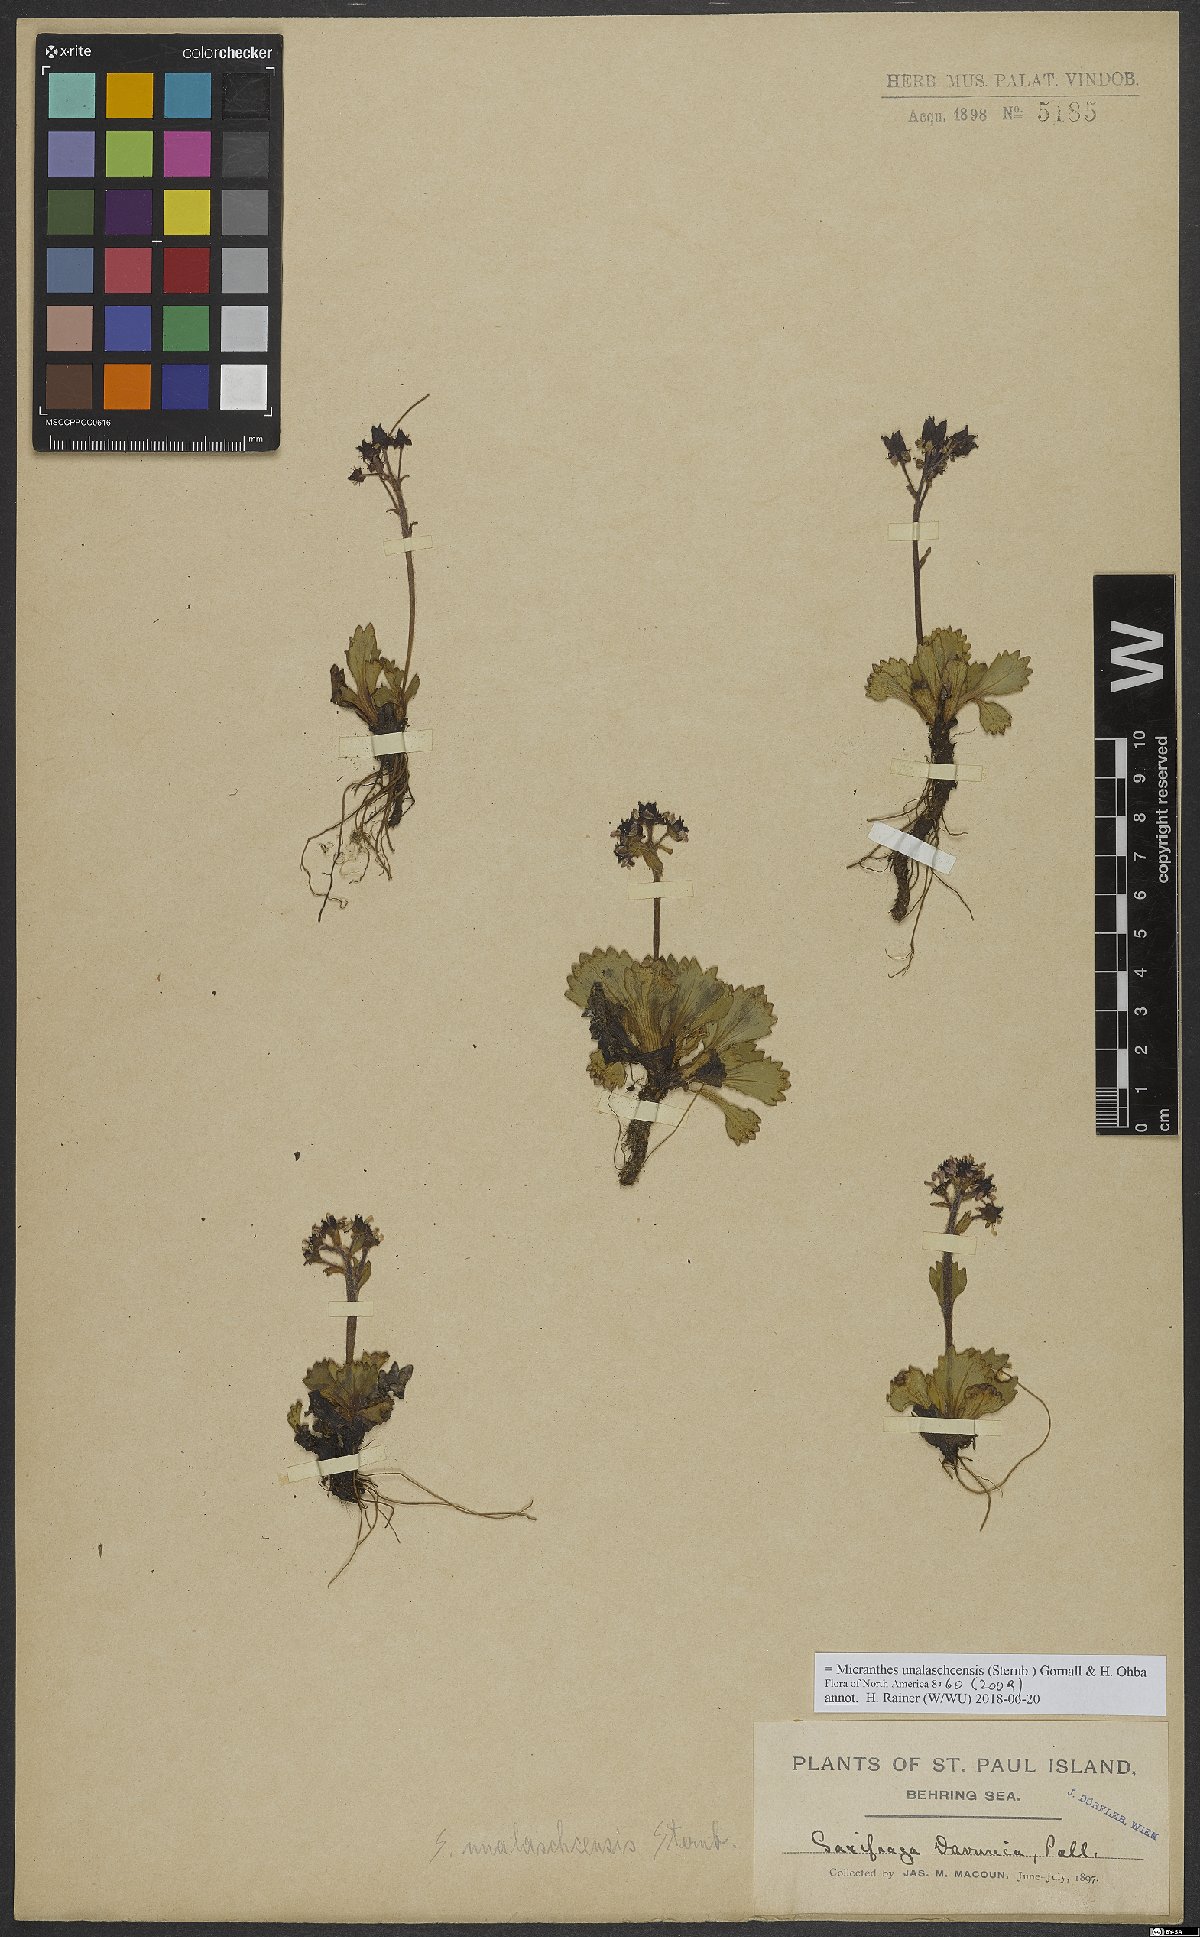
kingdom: Plantae
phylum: Tracheophyta
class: Magnoliopsida
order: Saxifragales
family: Saxifragaceae
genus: Micranthes
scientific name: Micranthes unalaschcensis
